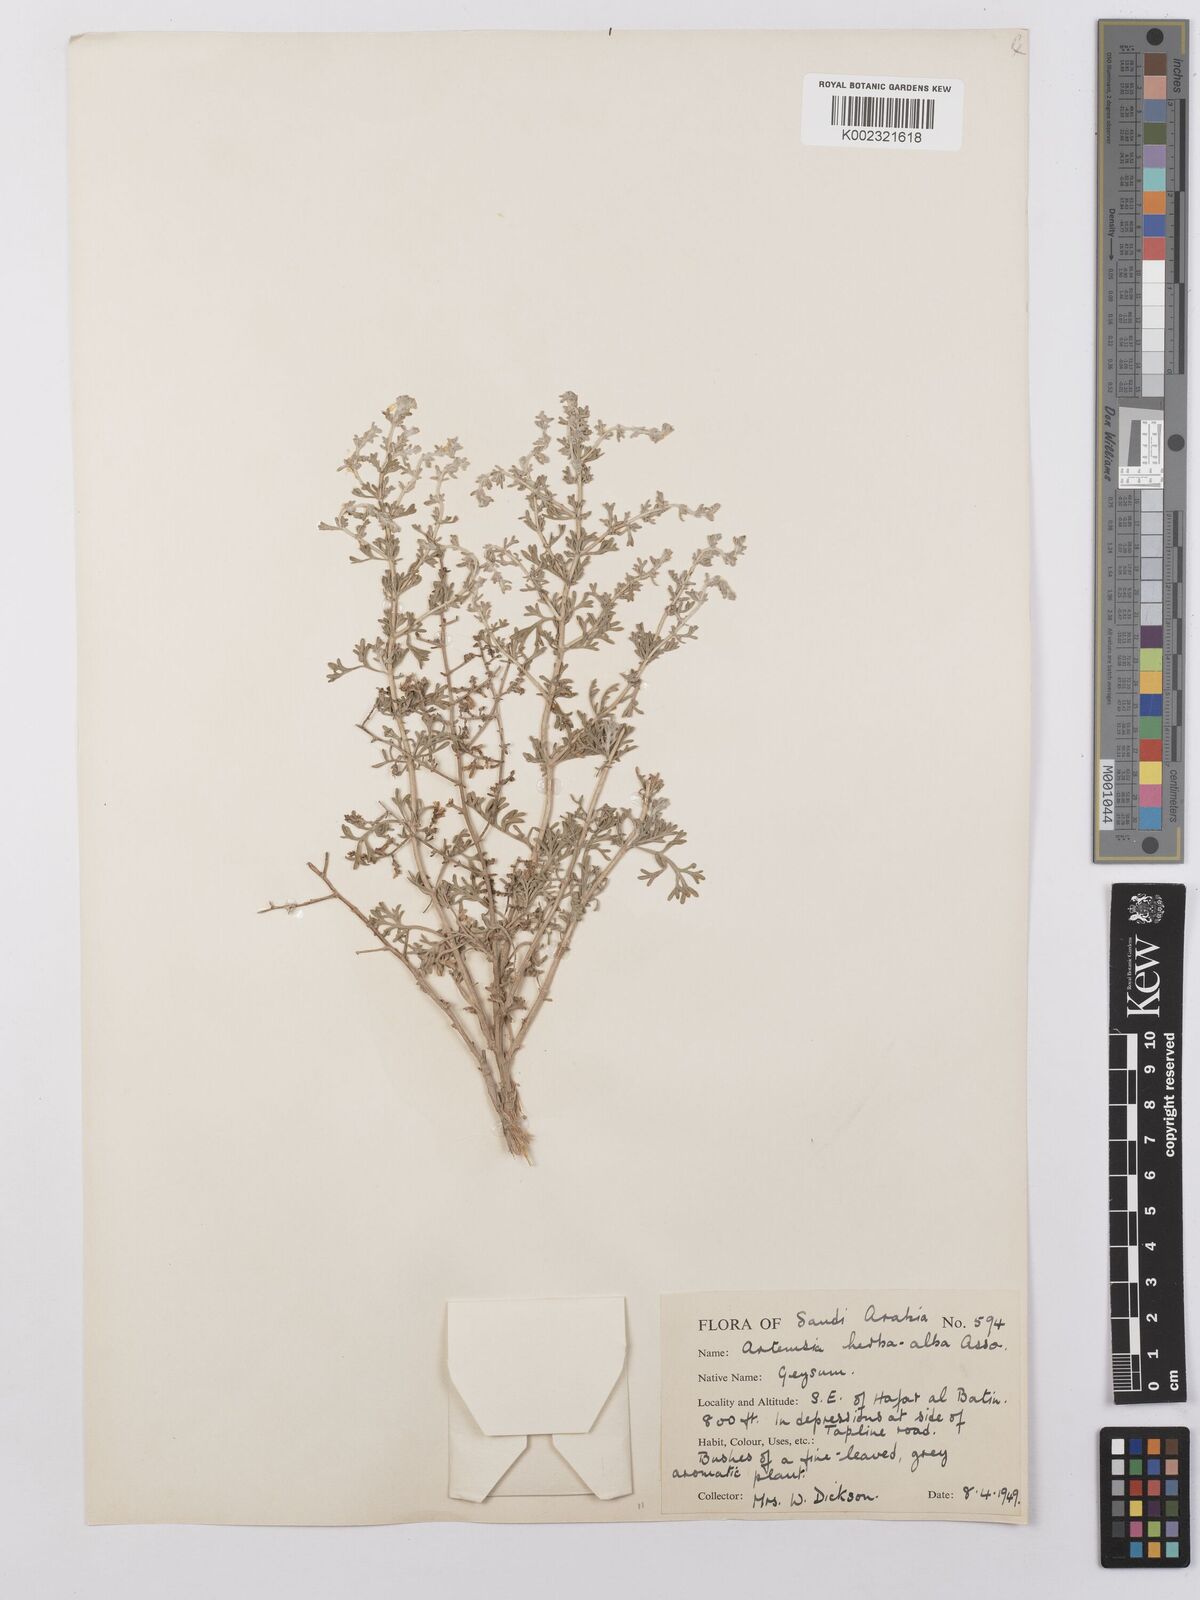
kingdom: Plantae
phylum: Tracheophyta
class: Magnoliopsida
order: Asterales
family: Asteraceae
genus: Artemisia
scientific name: Artemisia herba-alba
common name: White wormwood
